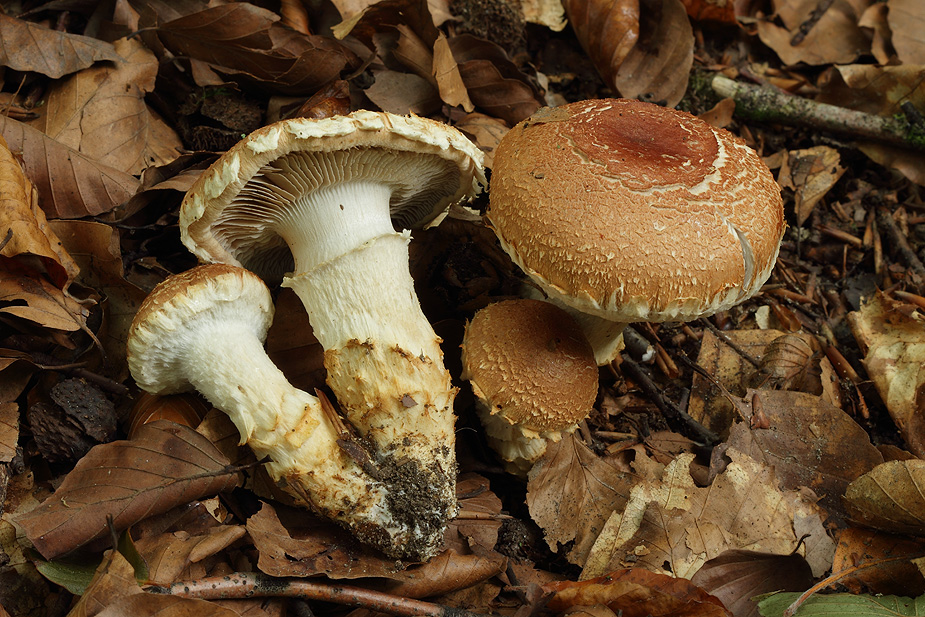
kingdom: Fungi
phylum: Basidiomycota
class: Agaricomycetes
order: Agaricales
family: Cortinariaceae
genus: Phlegmacium
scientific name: Phlegmacium vulpinum
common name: ringbæltet slørhat
